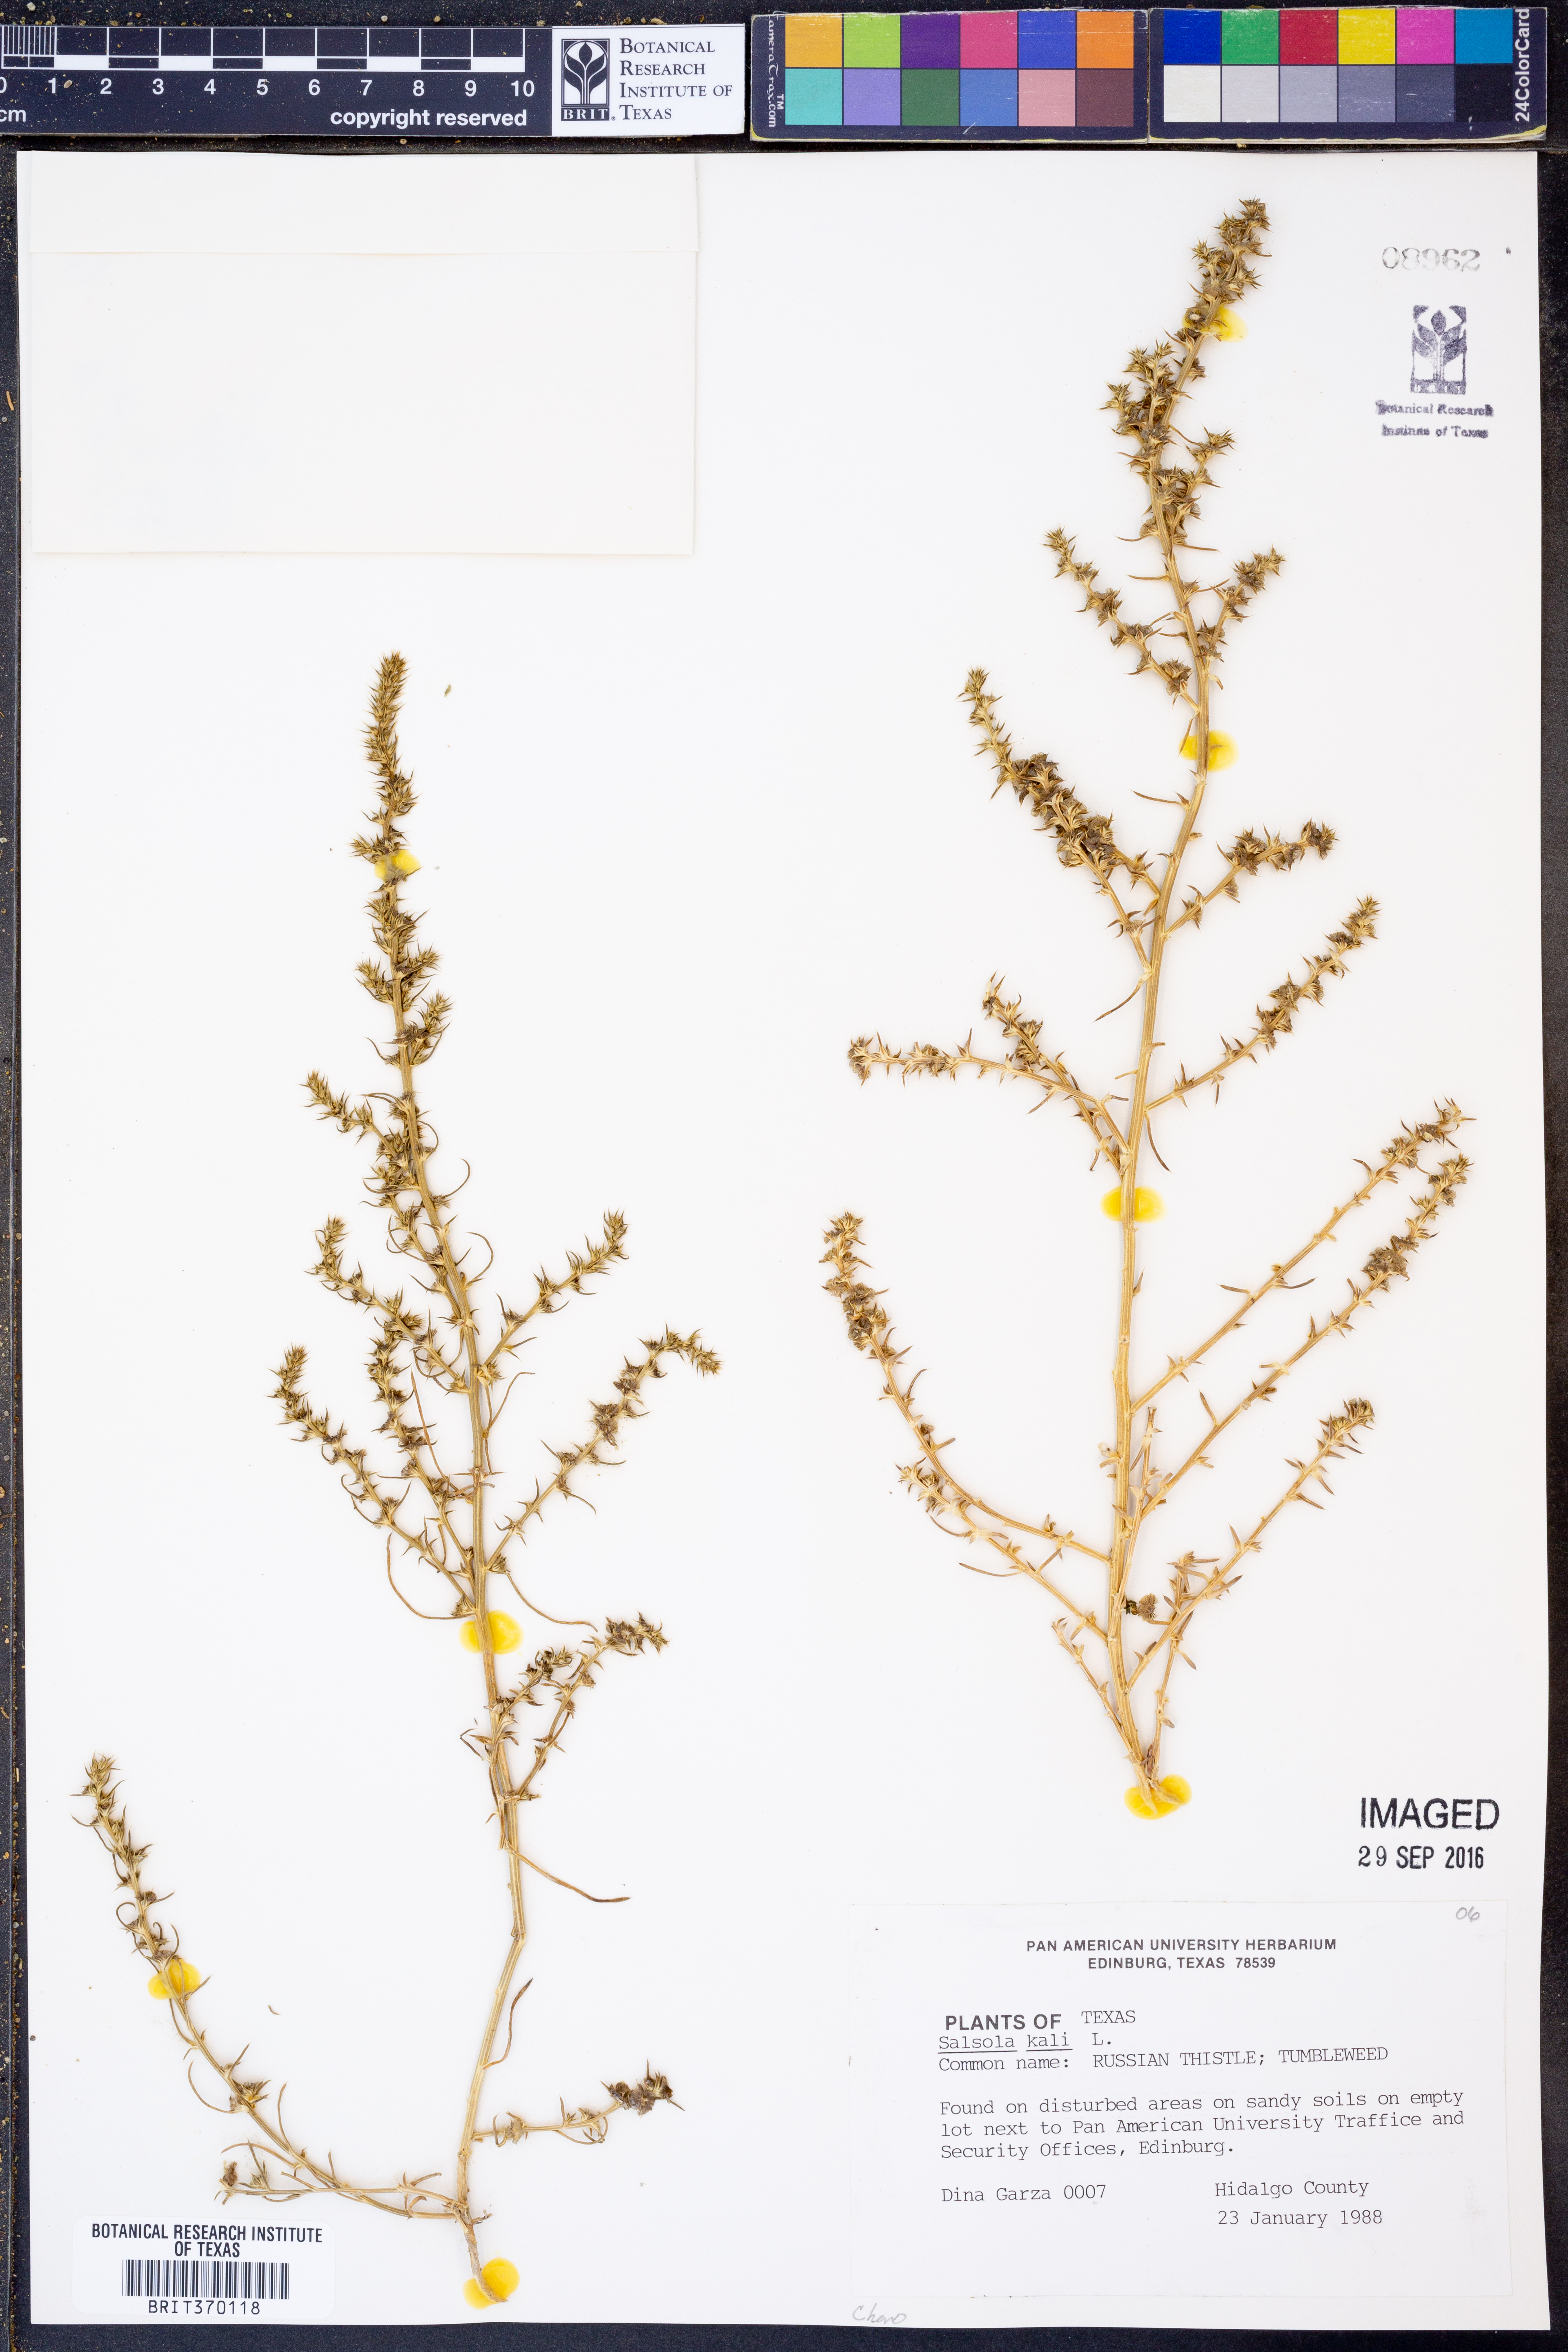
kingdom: Plantae
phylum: Tracheophyta
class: Magnoliopsida
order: Caryophyllales
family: Amaranthaceae
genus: Salsola
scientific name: Salsola kali
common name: Saltwort
